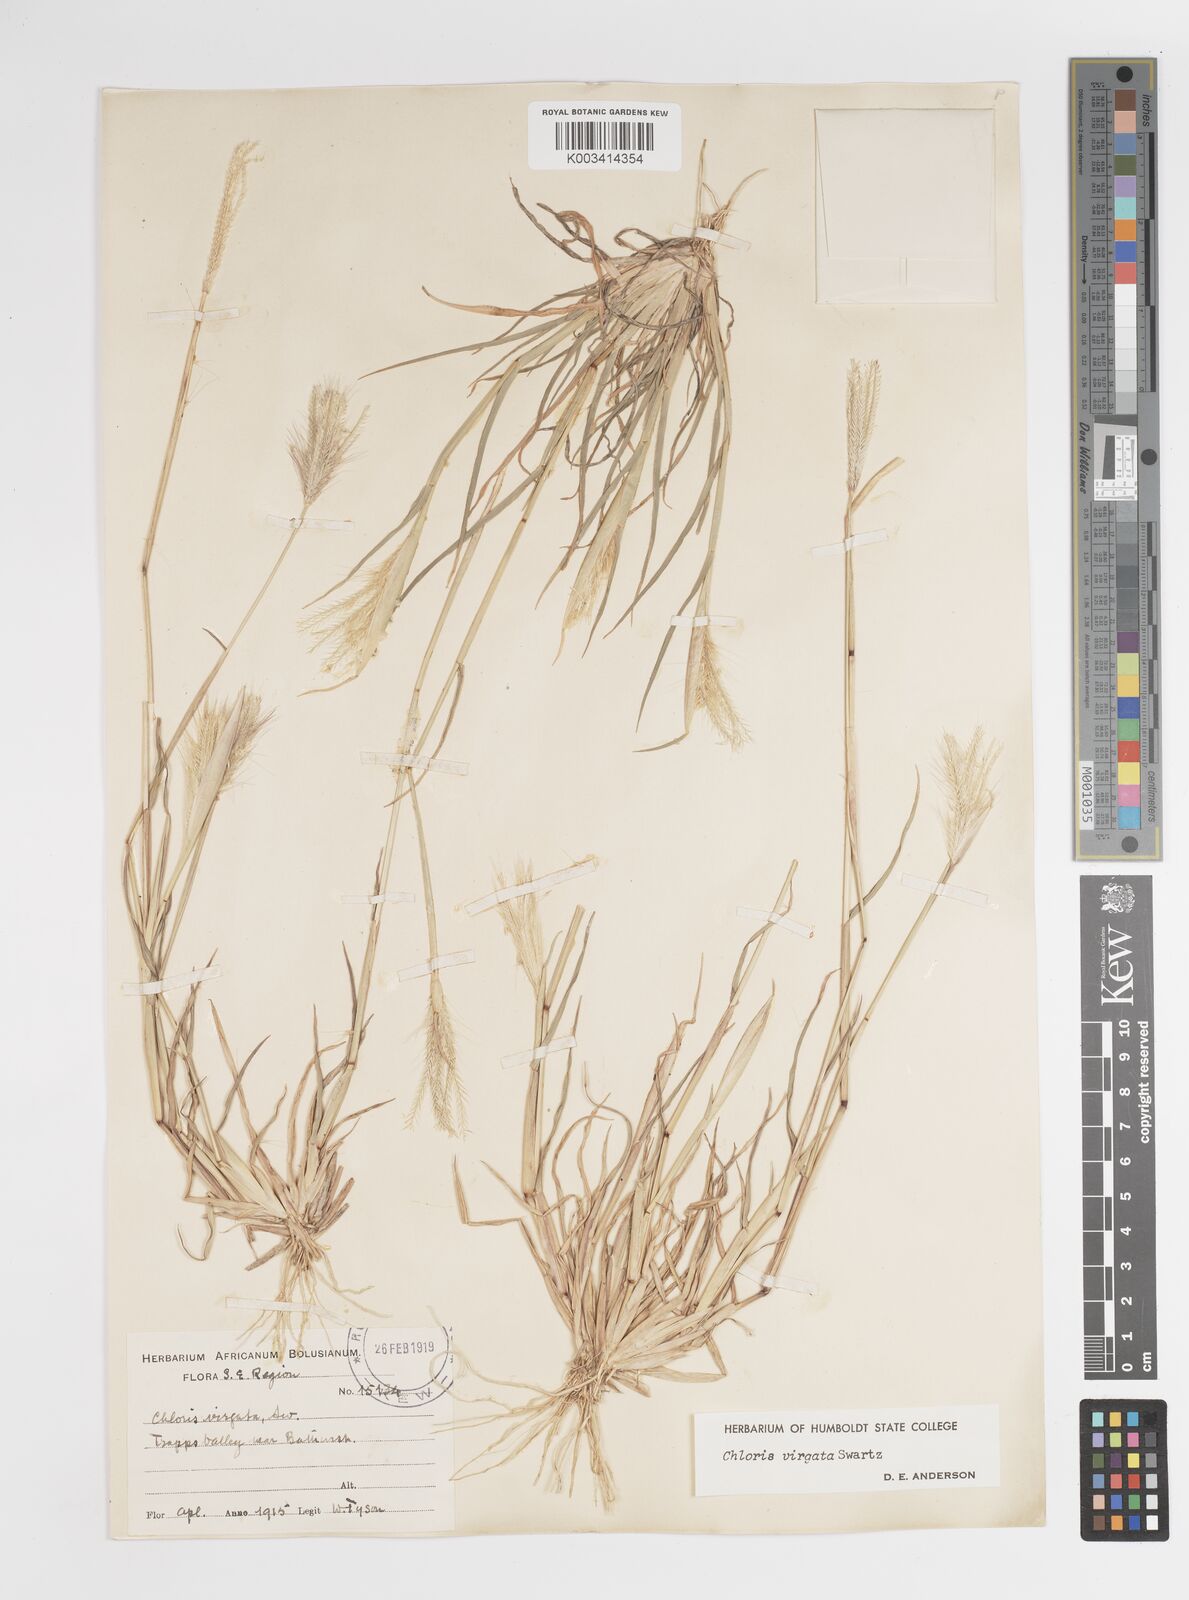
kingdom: Plantae
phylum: Tracheophyta
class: Liliopsida
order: Poales
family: Poaceae
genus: Chloris
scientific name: Chloris virgata
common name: Feathery rhodes-grass
